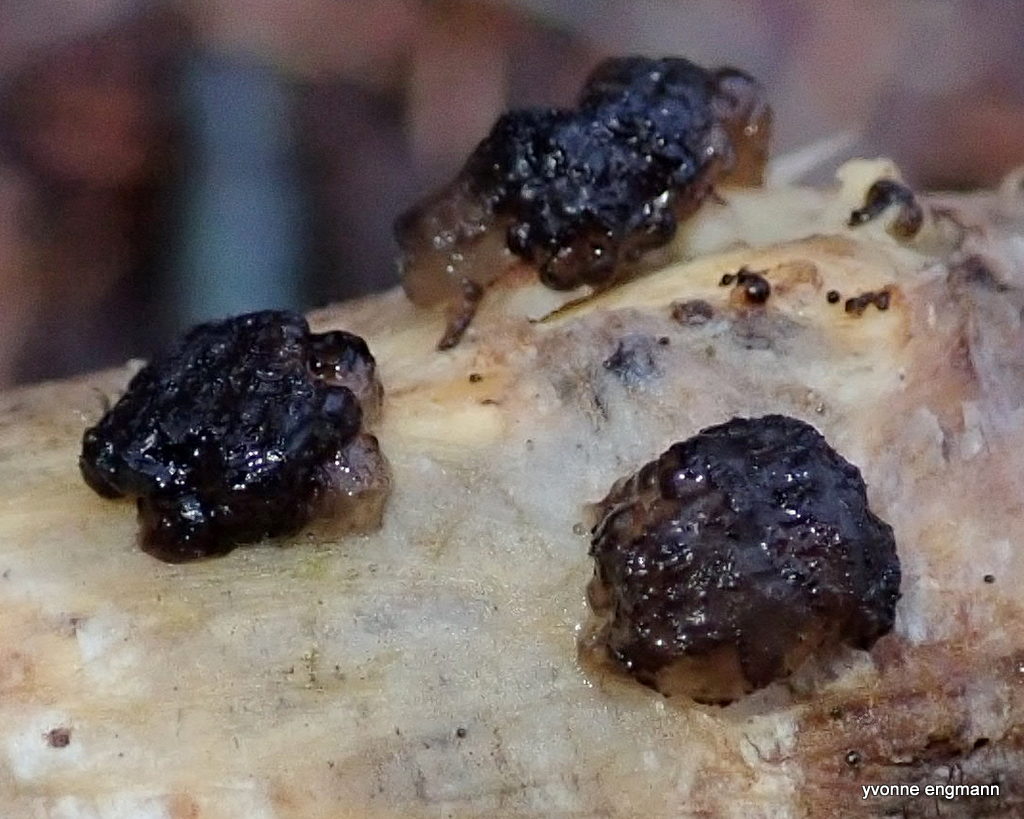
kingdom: Fungi
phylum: Basidiomycota
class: Agaricomycetes
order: Auriculariales
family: Auriculariaceae
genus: Exidia
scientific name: Exidia nigricans
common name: almindelig bævretop
